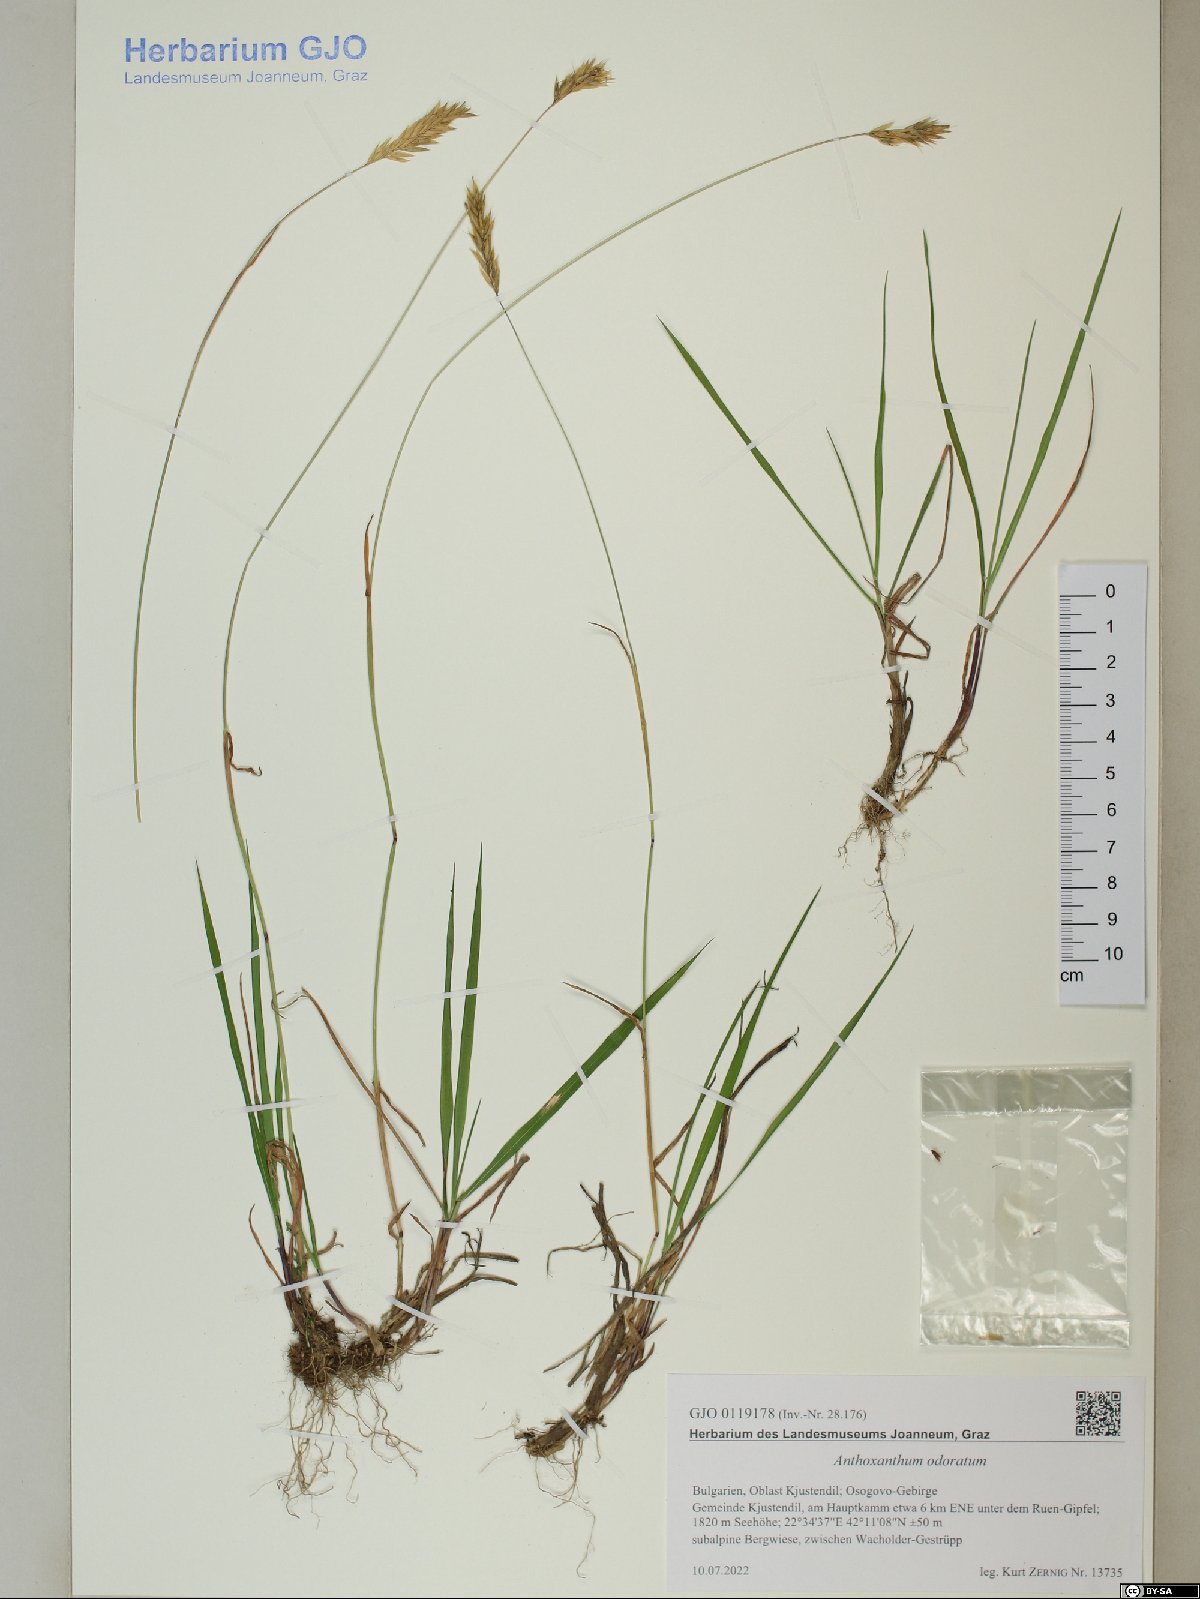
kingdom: Plantae
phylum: Tracheophyta
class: Liliopsida
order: Poales
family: Poaceae
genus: Anthoxanthum
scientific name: Anthoxanthum odoratum
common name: Sweet vernalgrass
